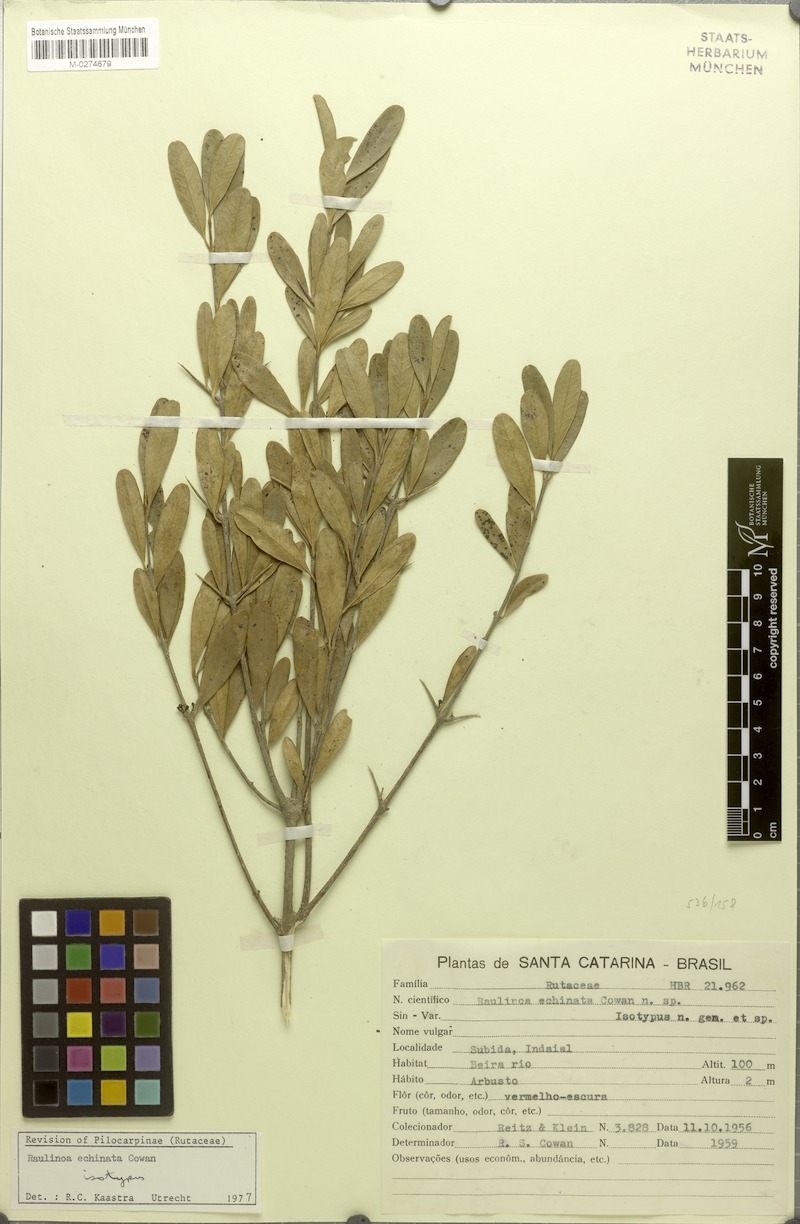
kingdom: Plantae
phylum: Tracheophyta
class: Magnoliopsida
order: Sapindales
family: Rutaceae
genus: Raulinoa
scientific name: Raulinoa echinata
